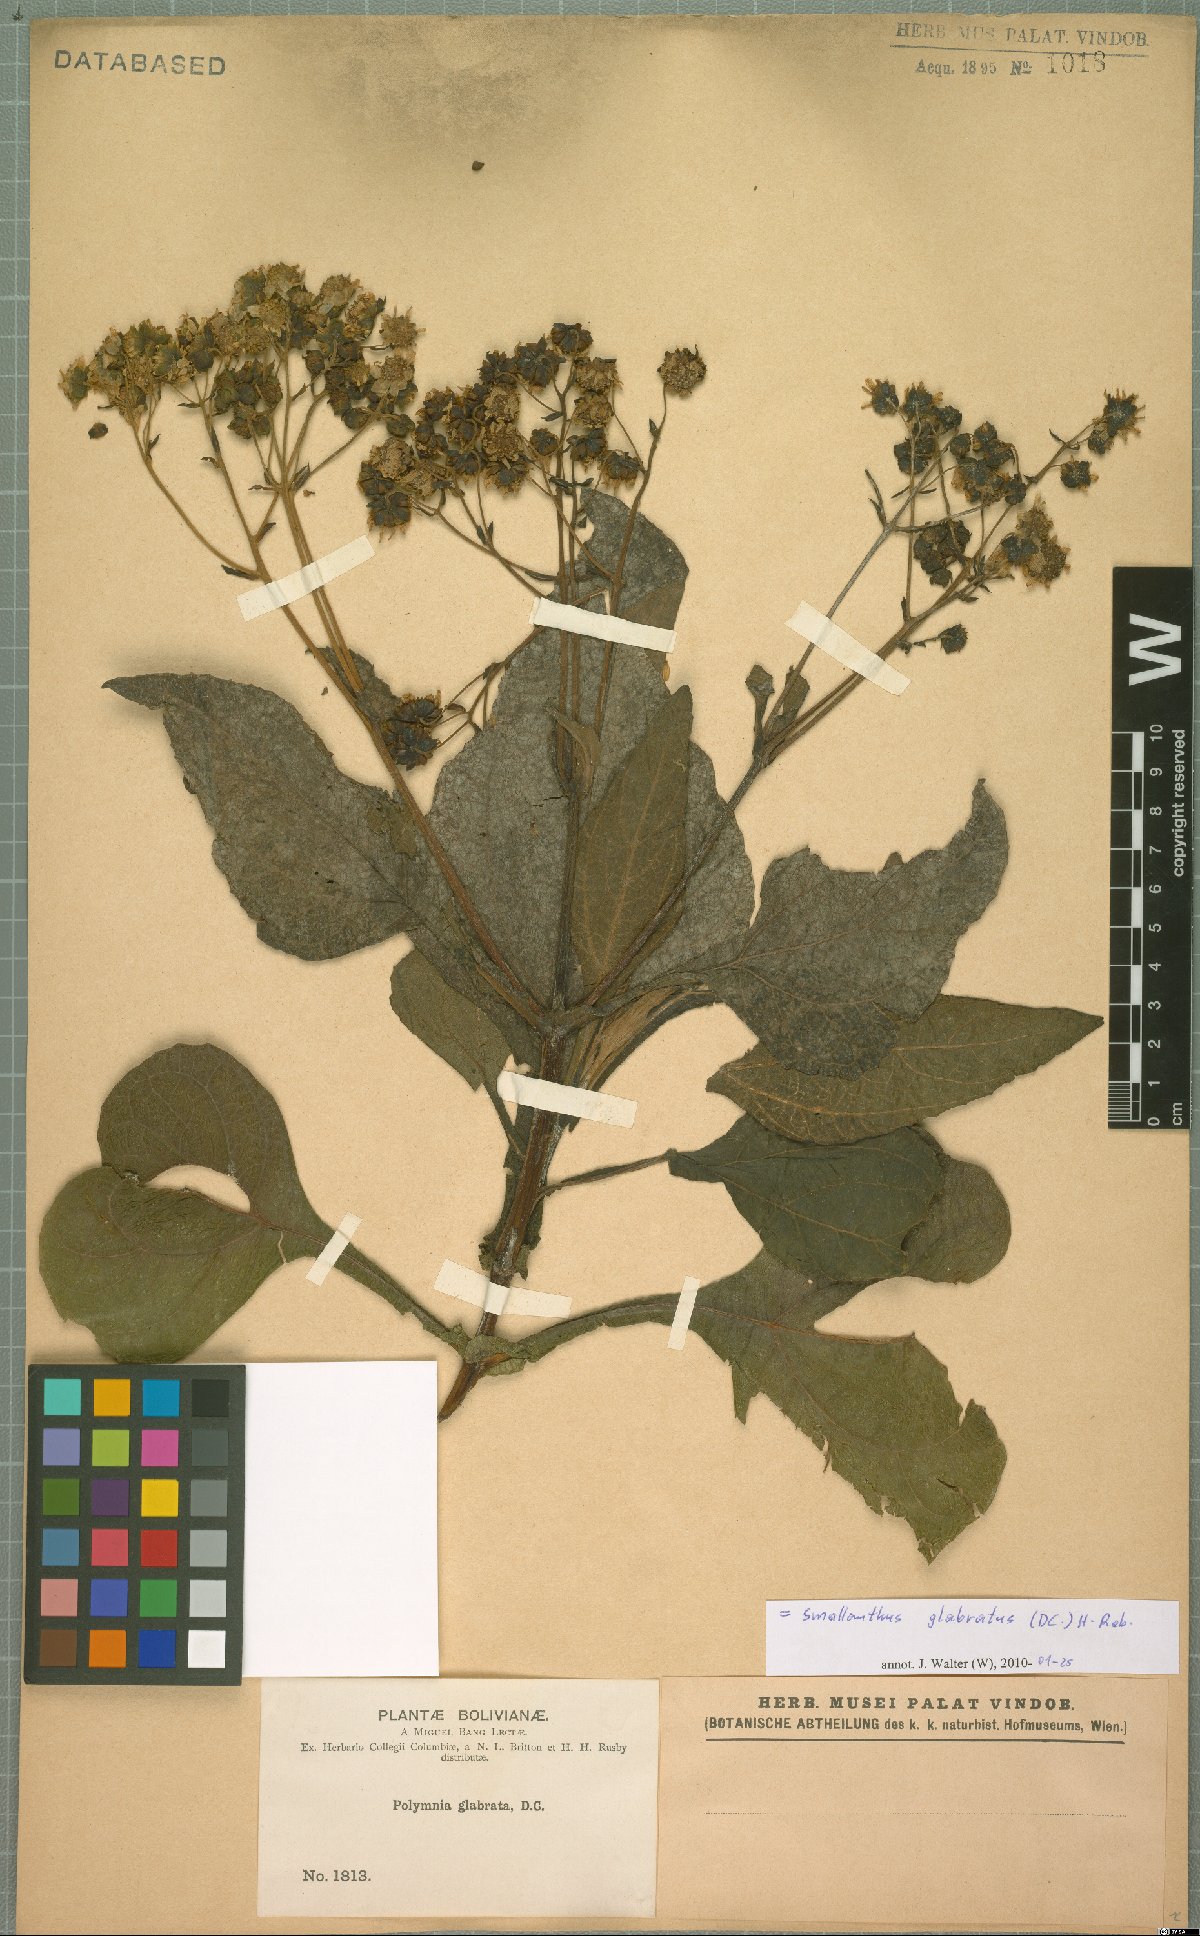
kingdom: Plantae
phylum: Tracheophyta
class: Magnoliopsida
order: Asterales
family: Asteraceae
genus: Smallanthus
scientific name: Smallanthus glabratus
